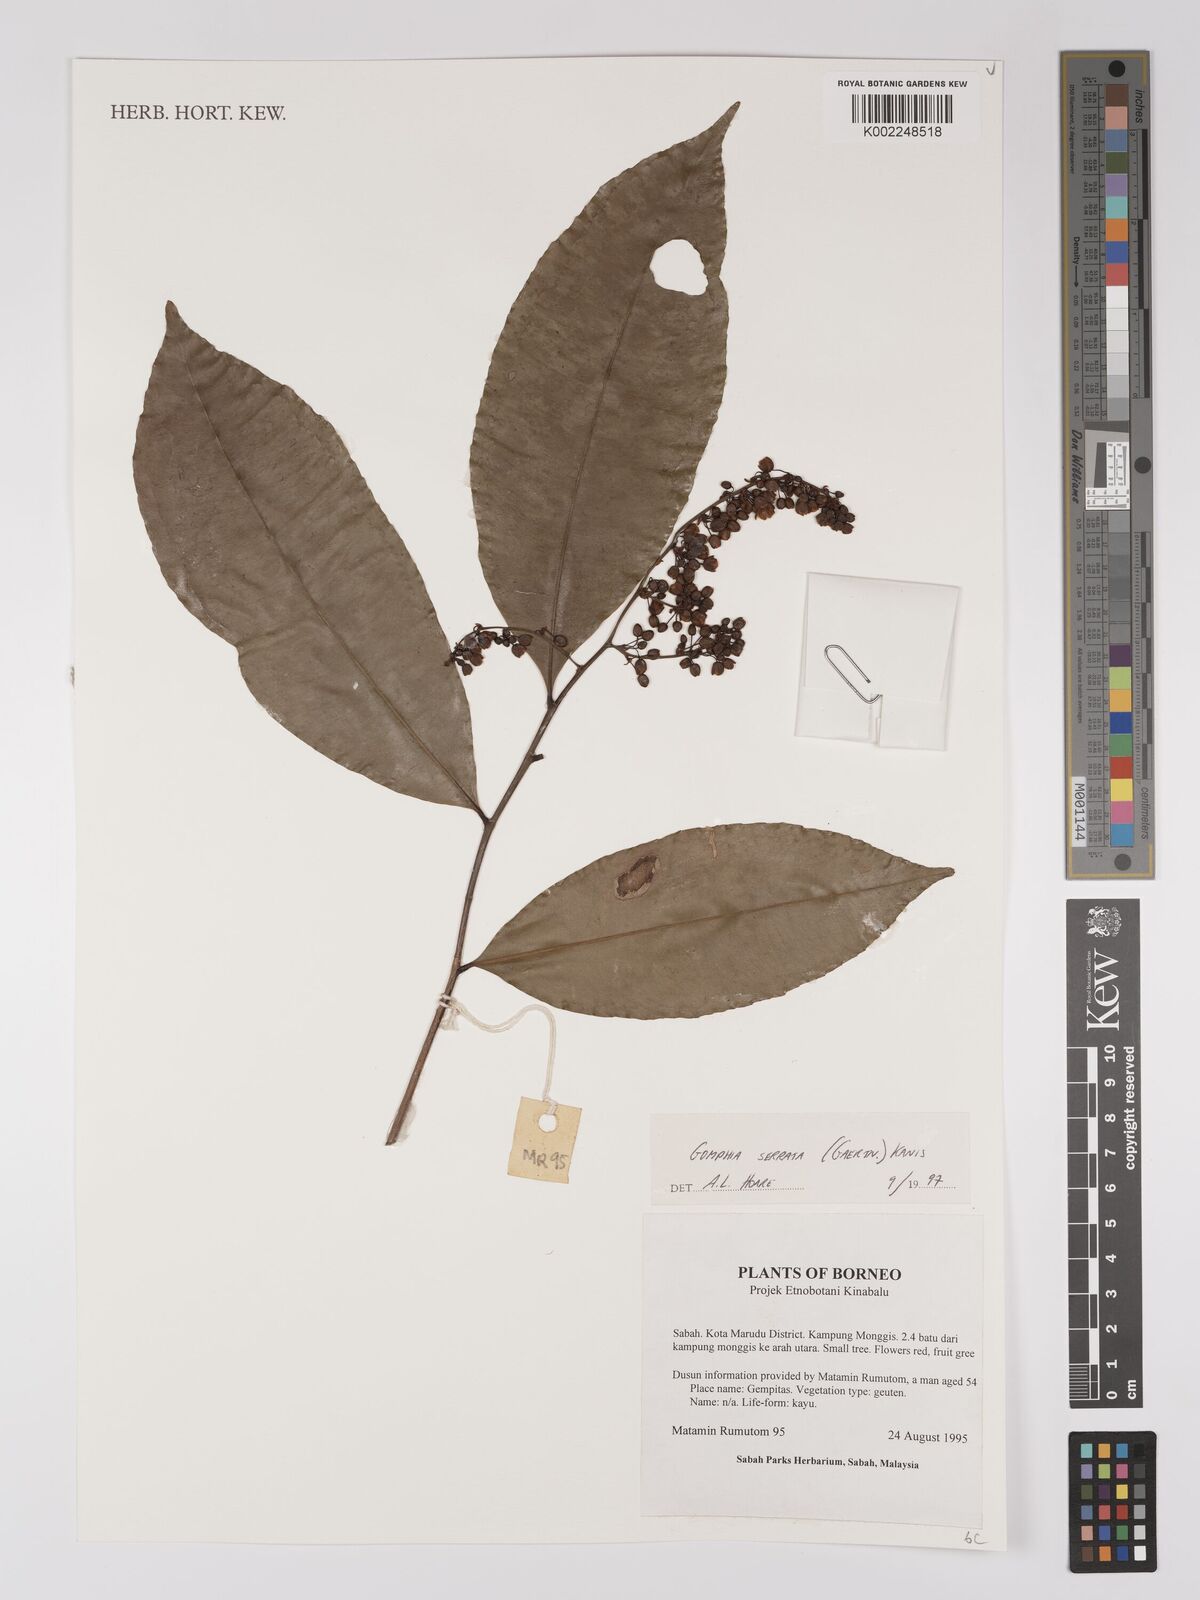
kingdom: Plantae
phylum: Tracheophyta
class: Magnoliopsida
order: Malpighiales
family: Ochnaceae
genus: Gomphia
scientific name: Gomphia serrata
